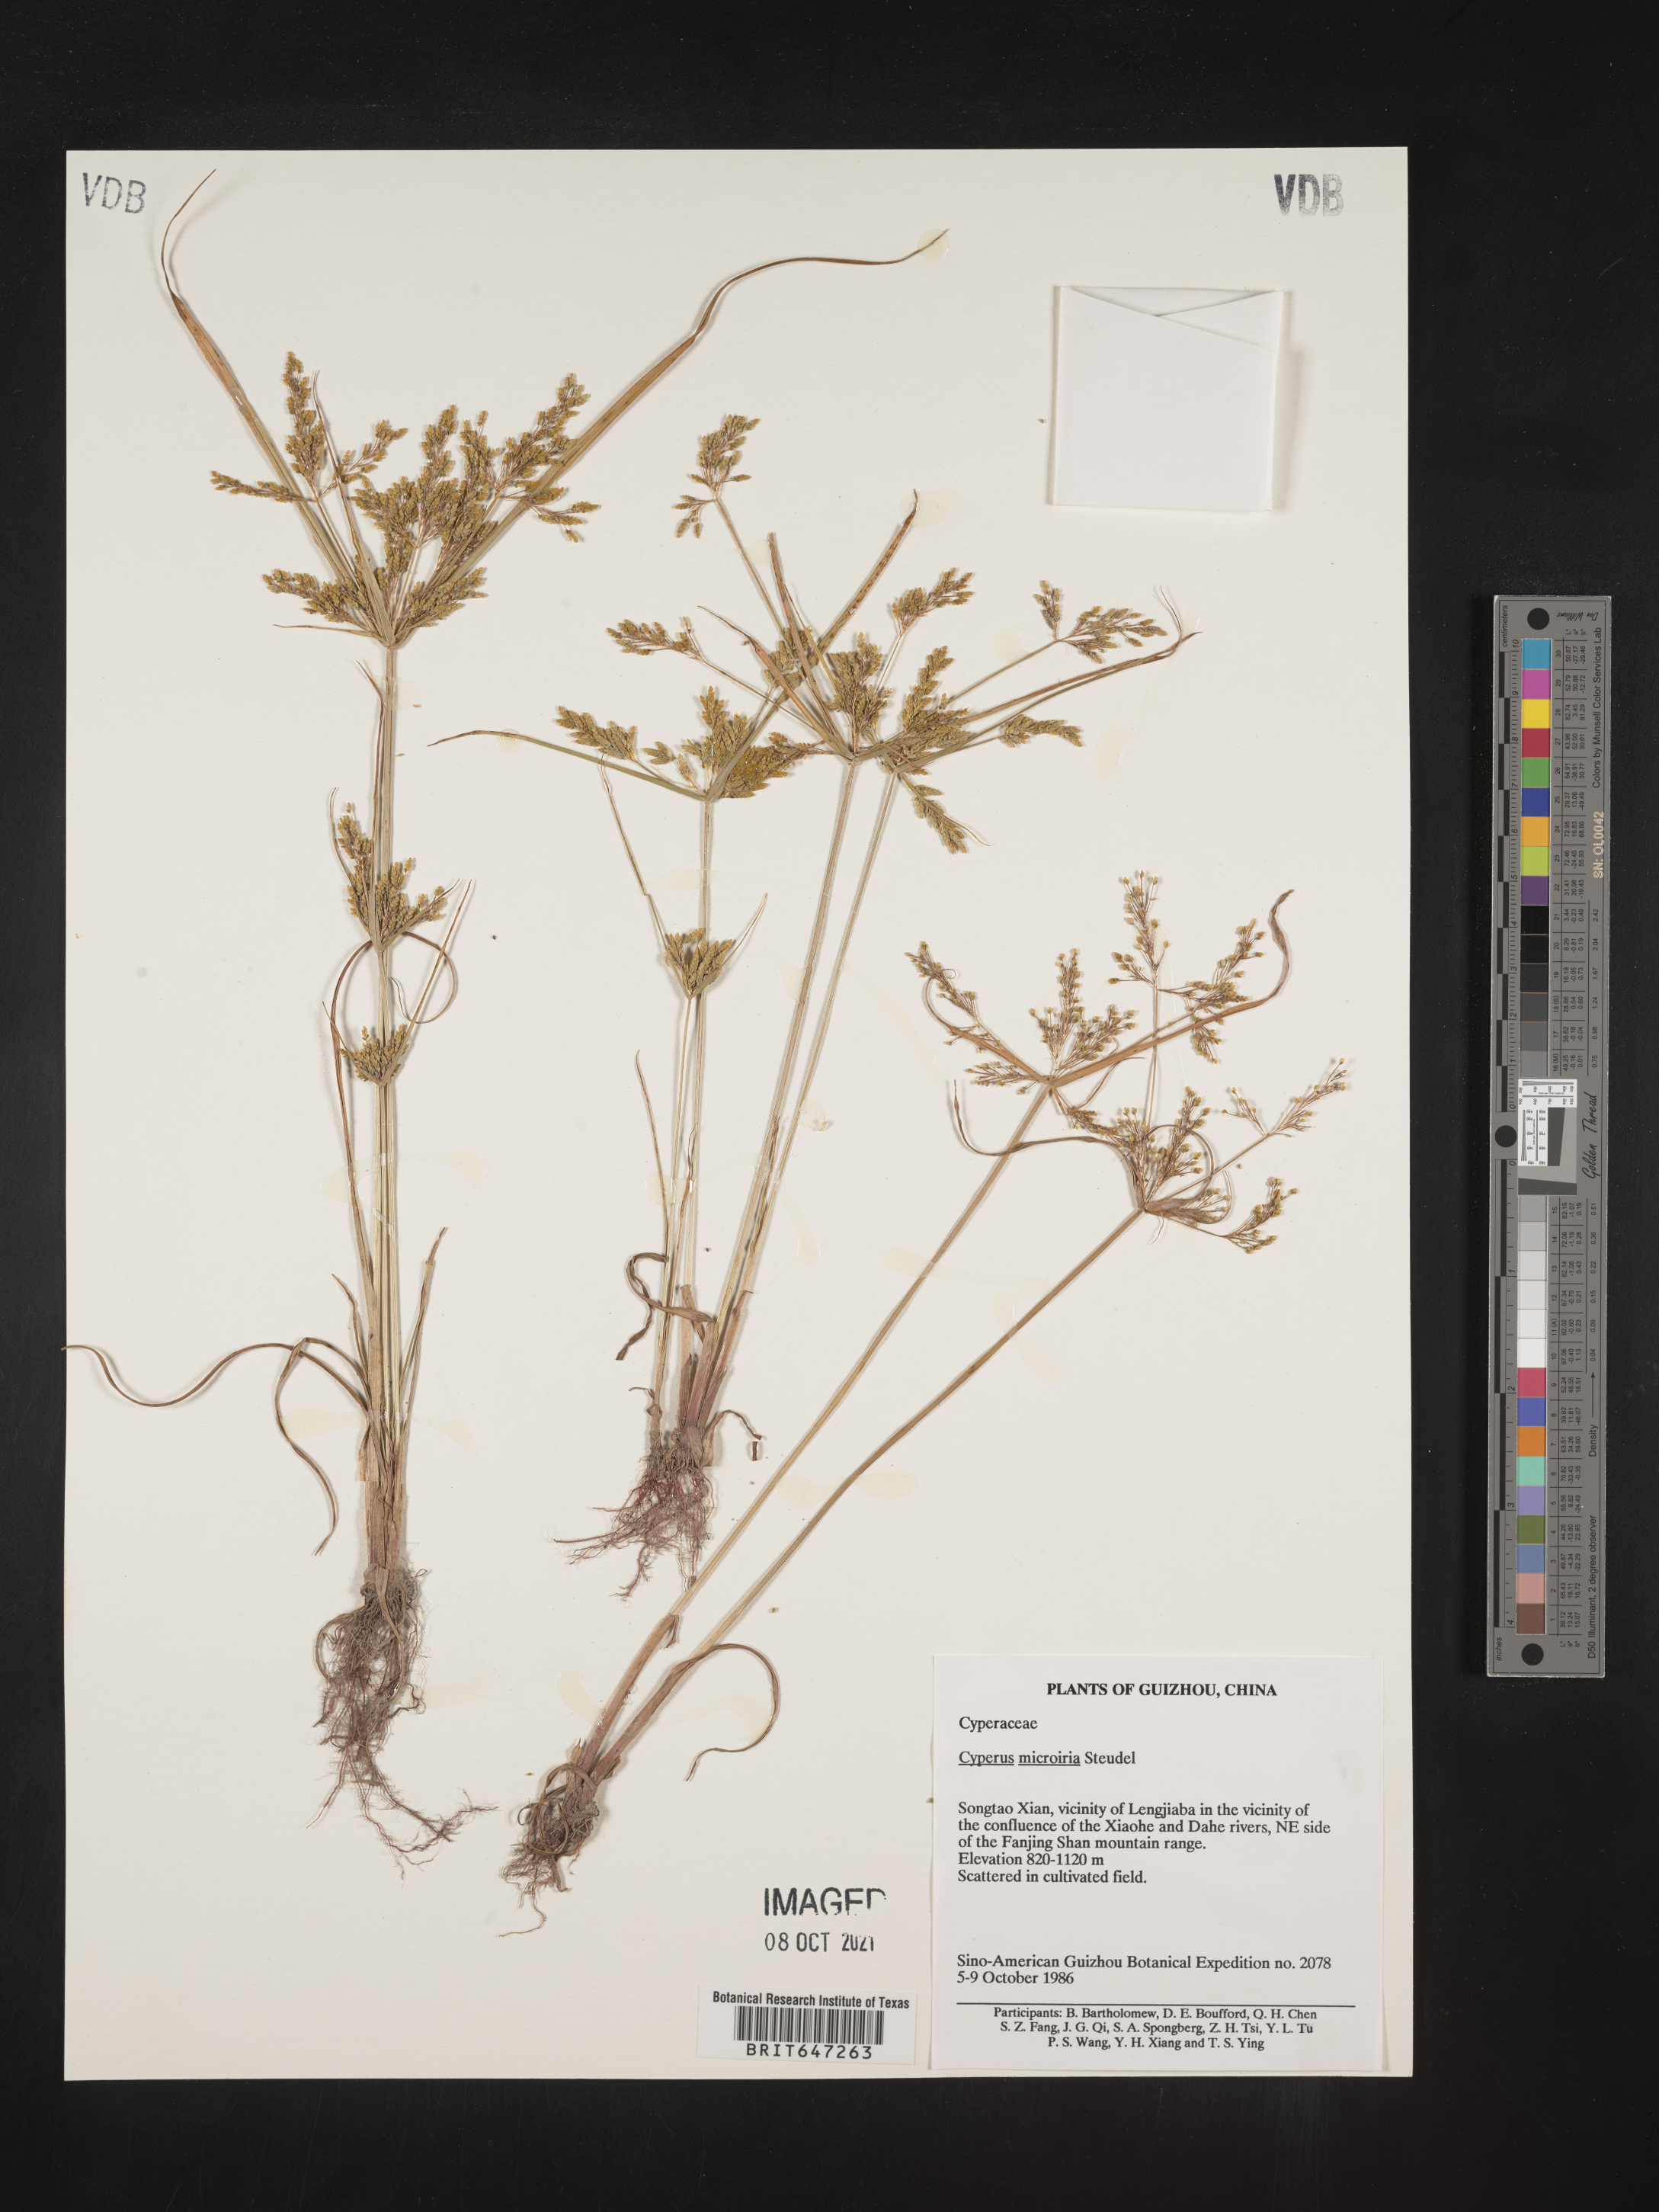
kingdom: Plantae
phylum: Tracheophyta
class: Liliopsida
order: Poales
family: Cyperaceae
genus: Cyperus
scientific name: Cyperus microiria
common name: Asian flatsedge
